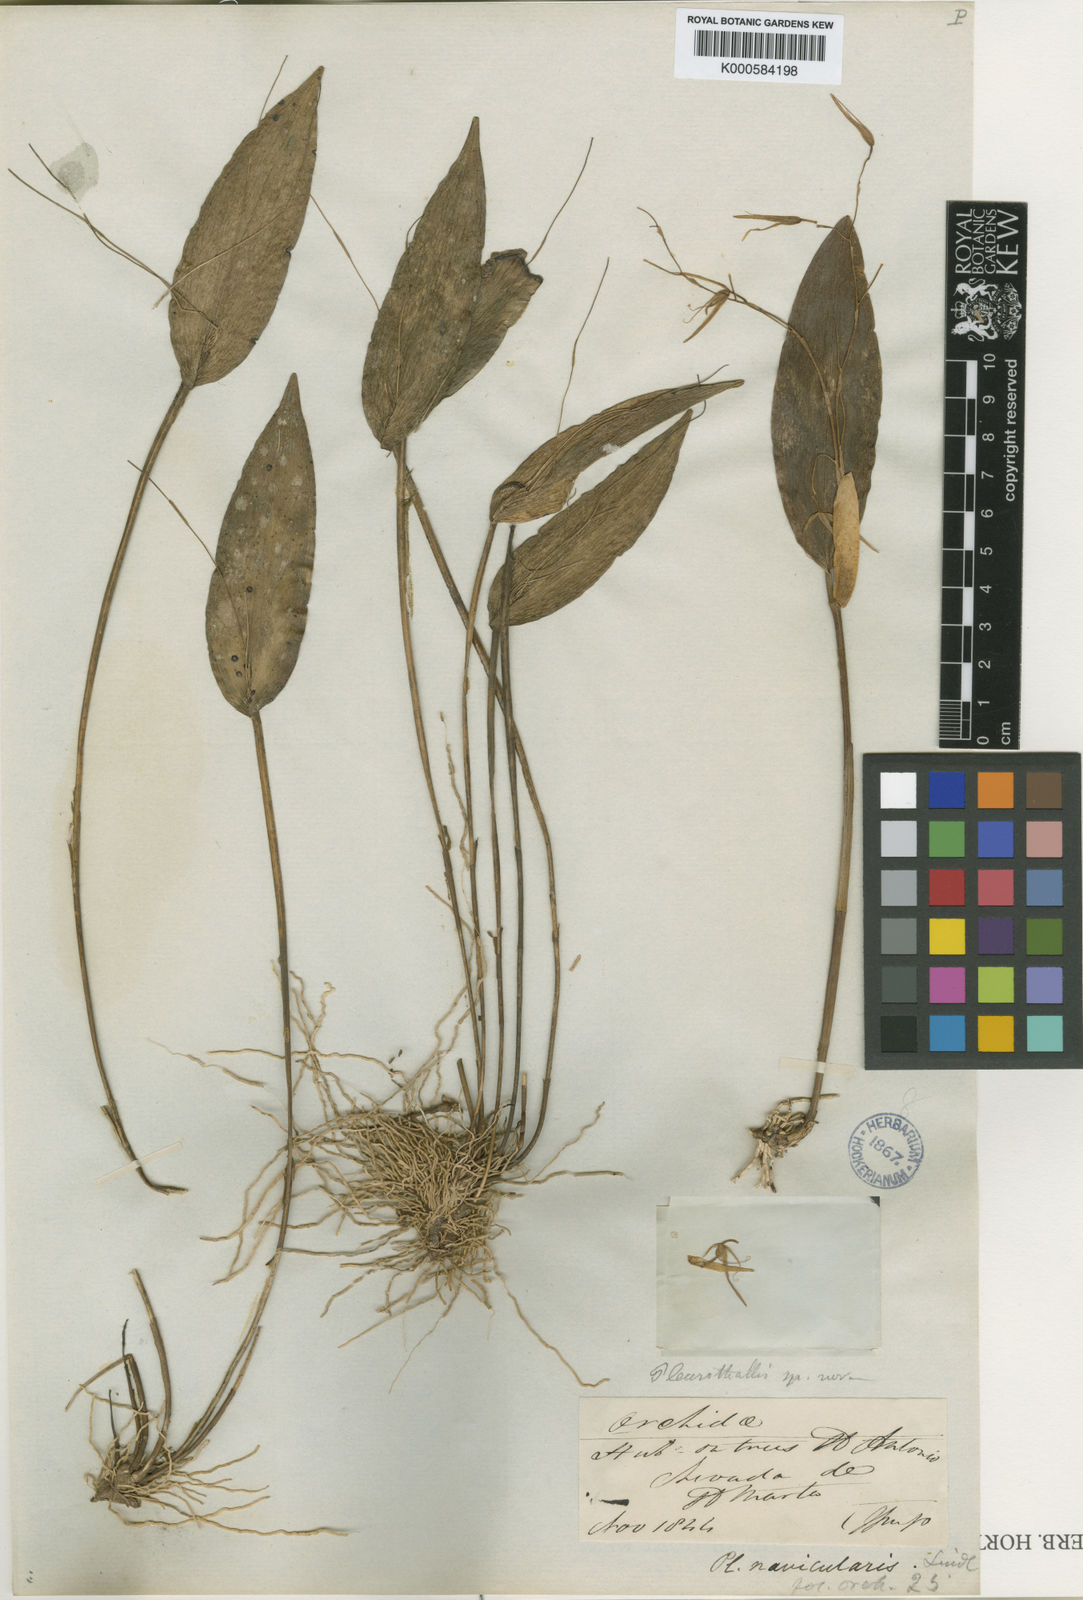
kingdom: Plantae
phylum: Tracheophyta
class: Liliopsida
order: Asparagales
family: Orchidaceae
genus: Pleurothallis
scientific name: Pleurothallis loranthophylla
